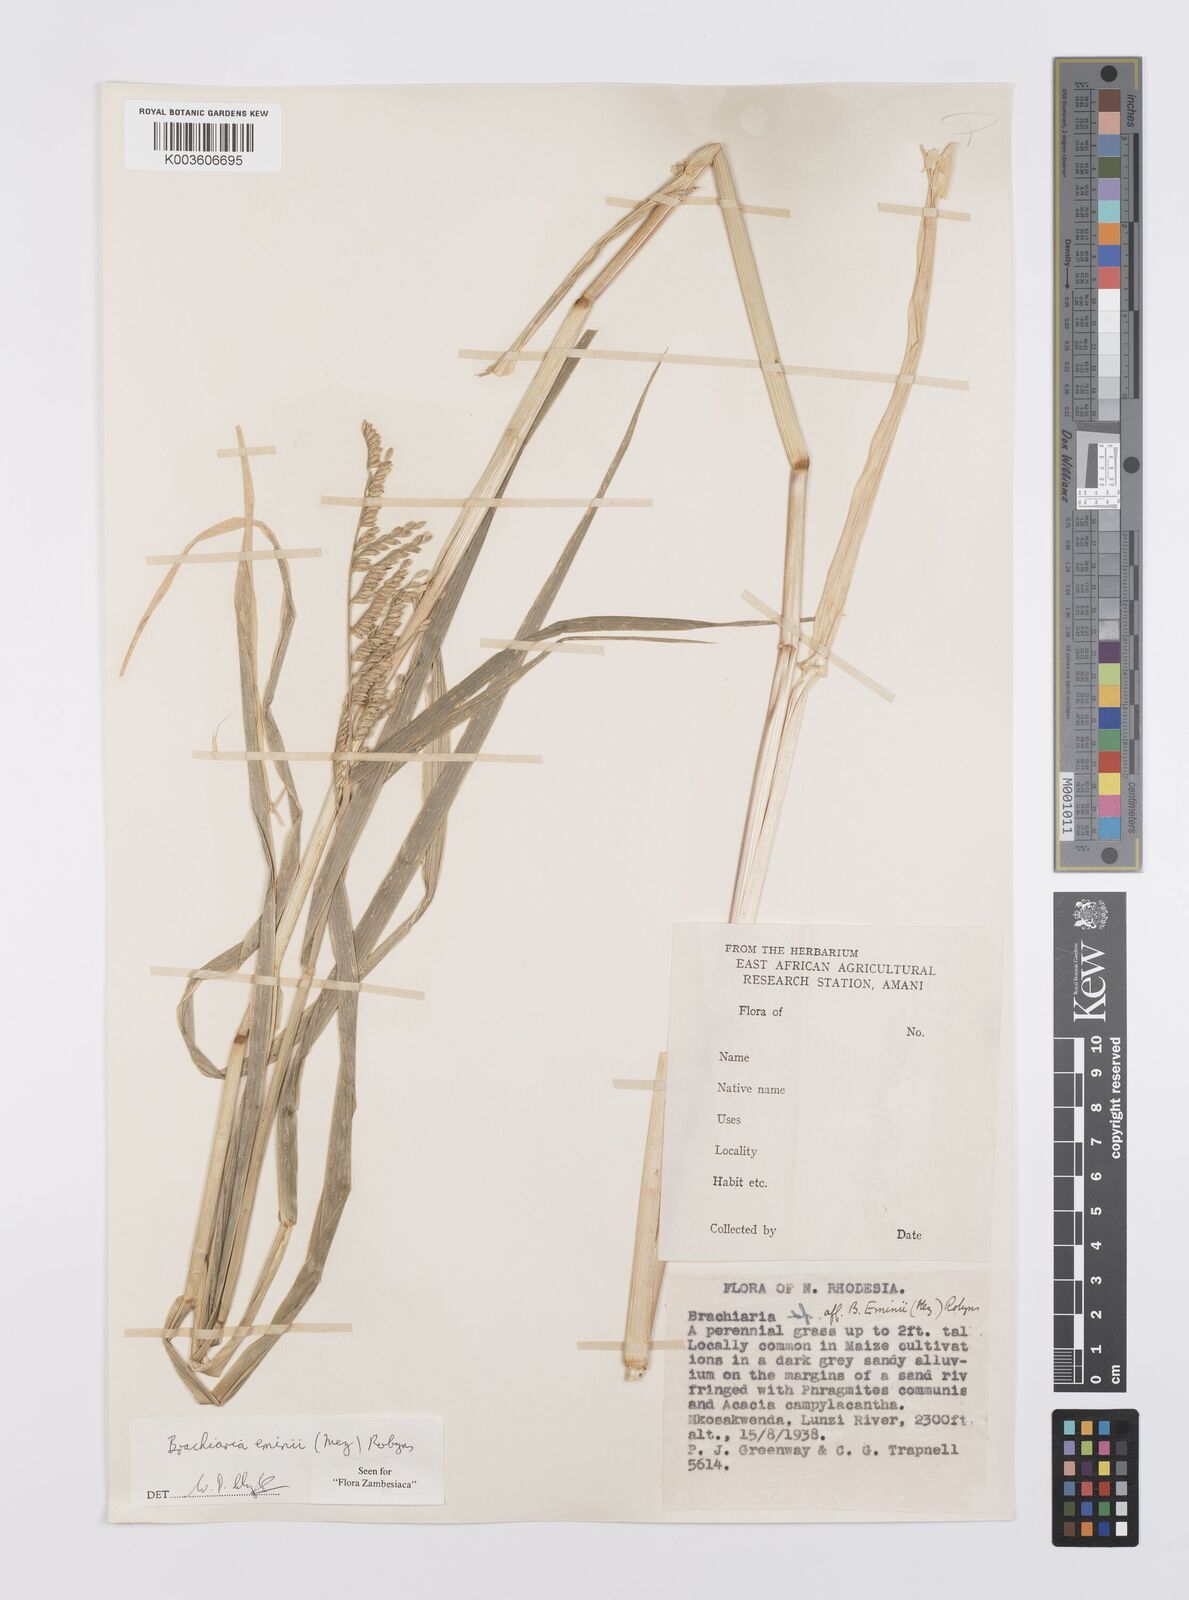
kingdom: Plantae
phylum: Tracheophyta
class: Liliopsida
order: Poales
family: Poaceae
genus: Urochloa
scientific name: Urochloa eminii
